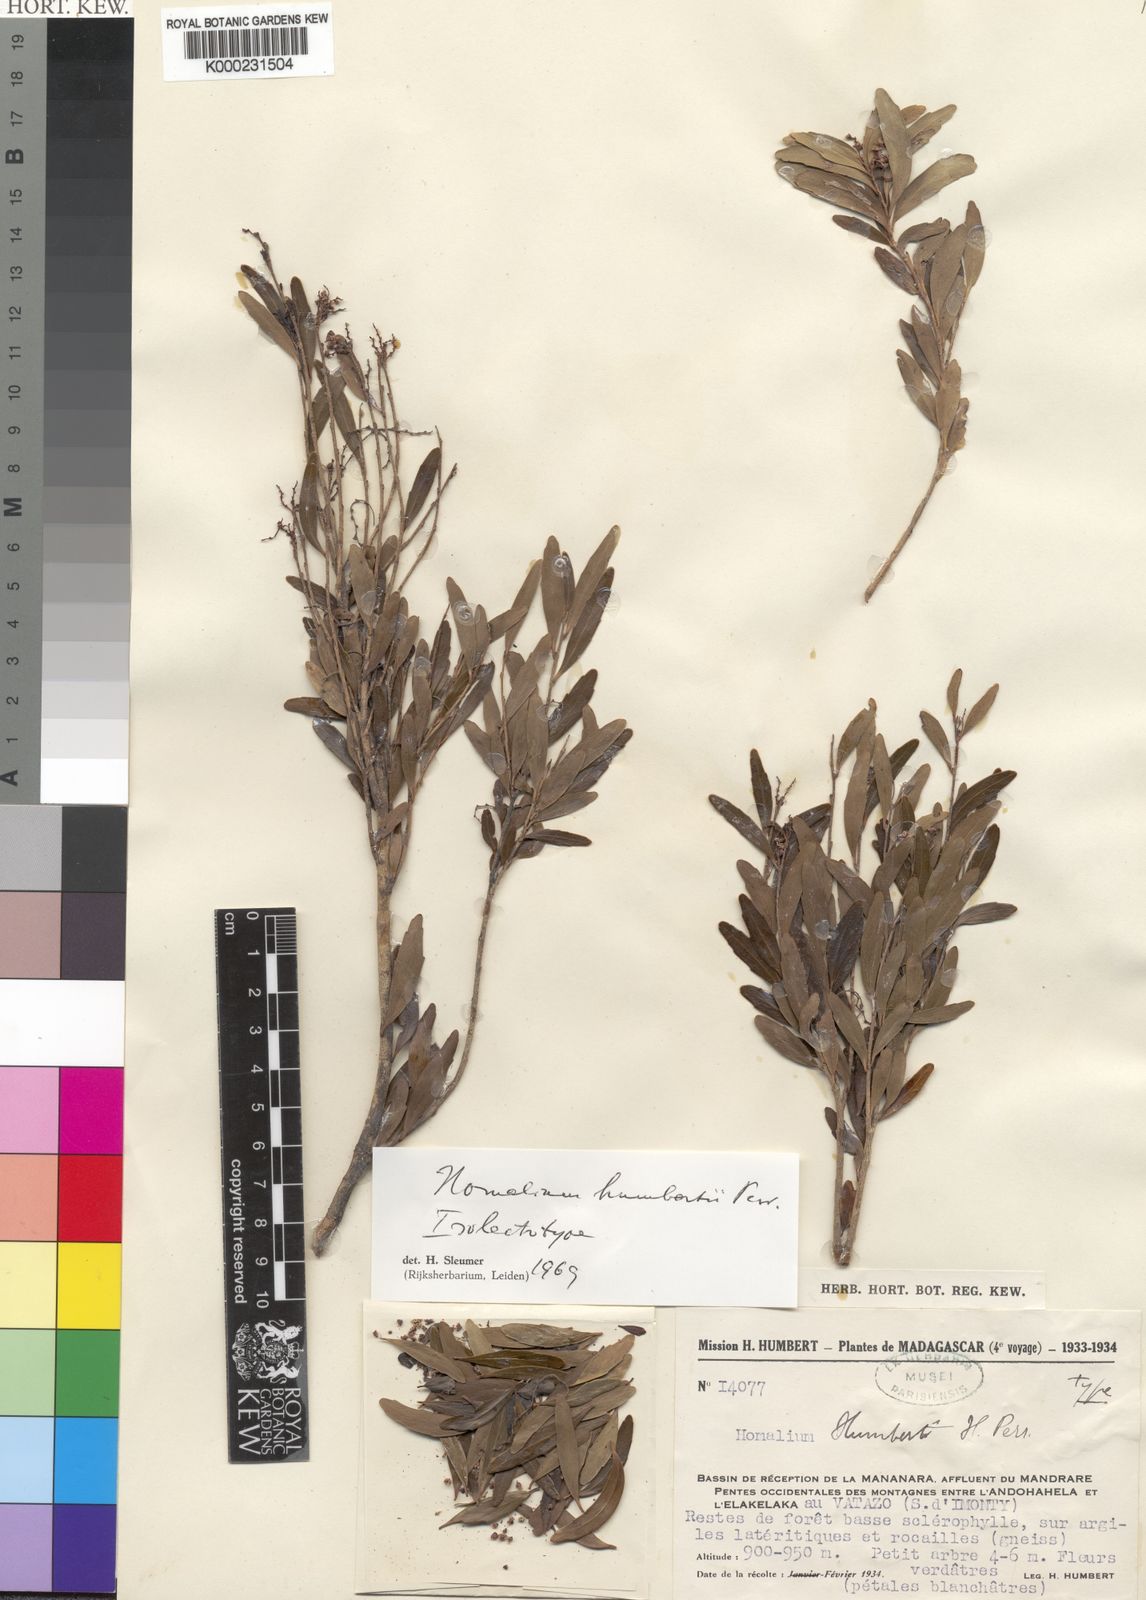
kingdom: Plantae
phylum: Tracheophyta
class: Magnoliopsida
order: Malpighiales
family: Salicaceae
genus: Homalium
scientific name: Homalium
